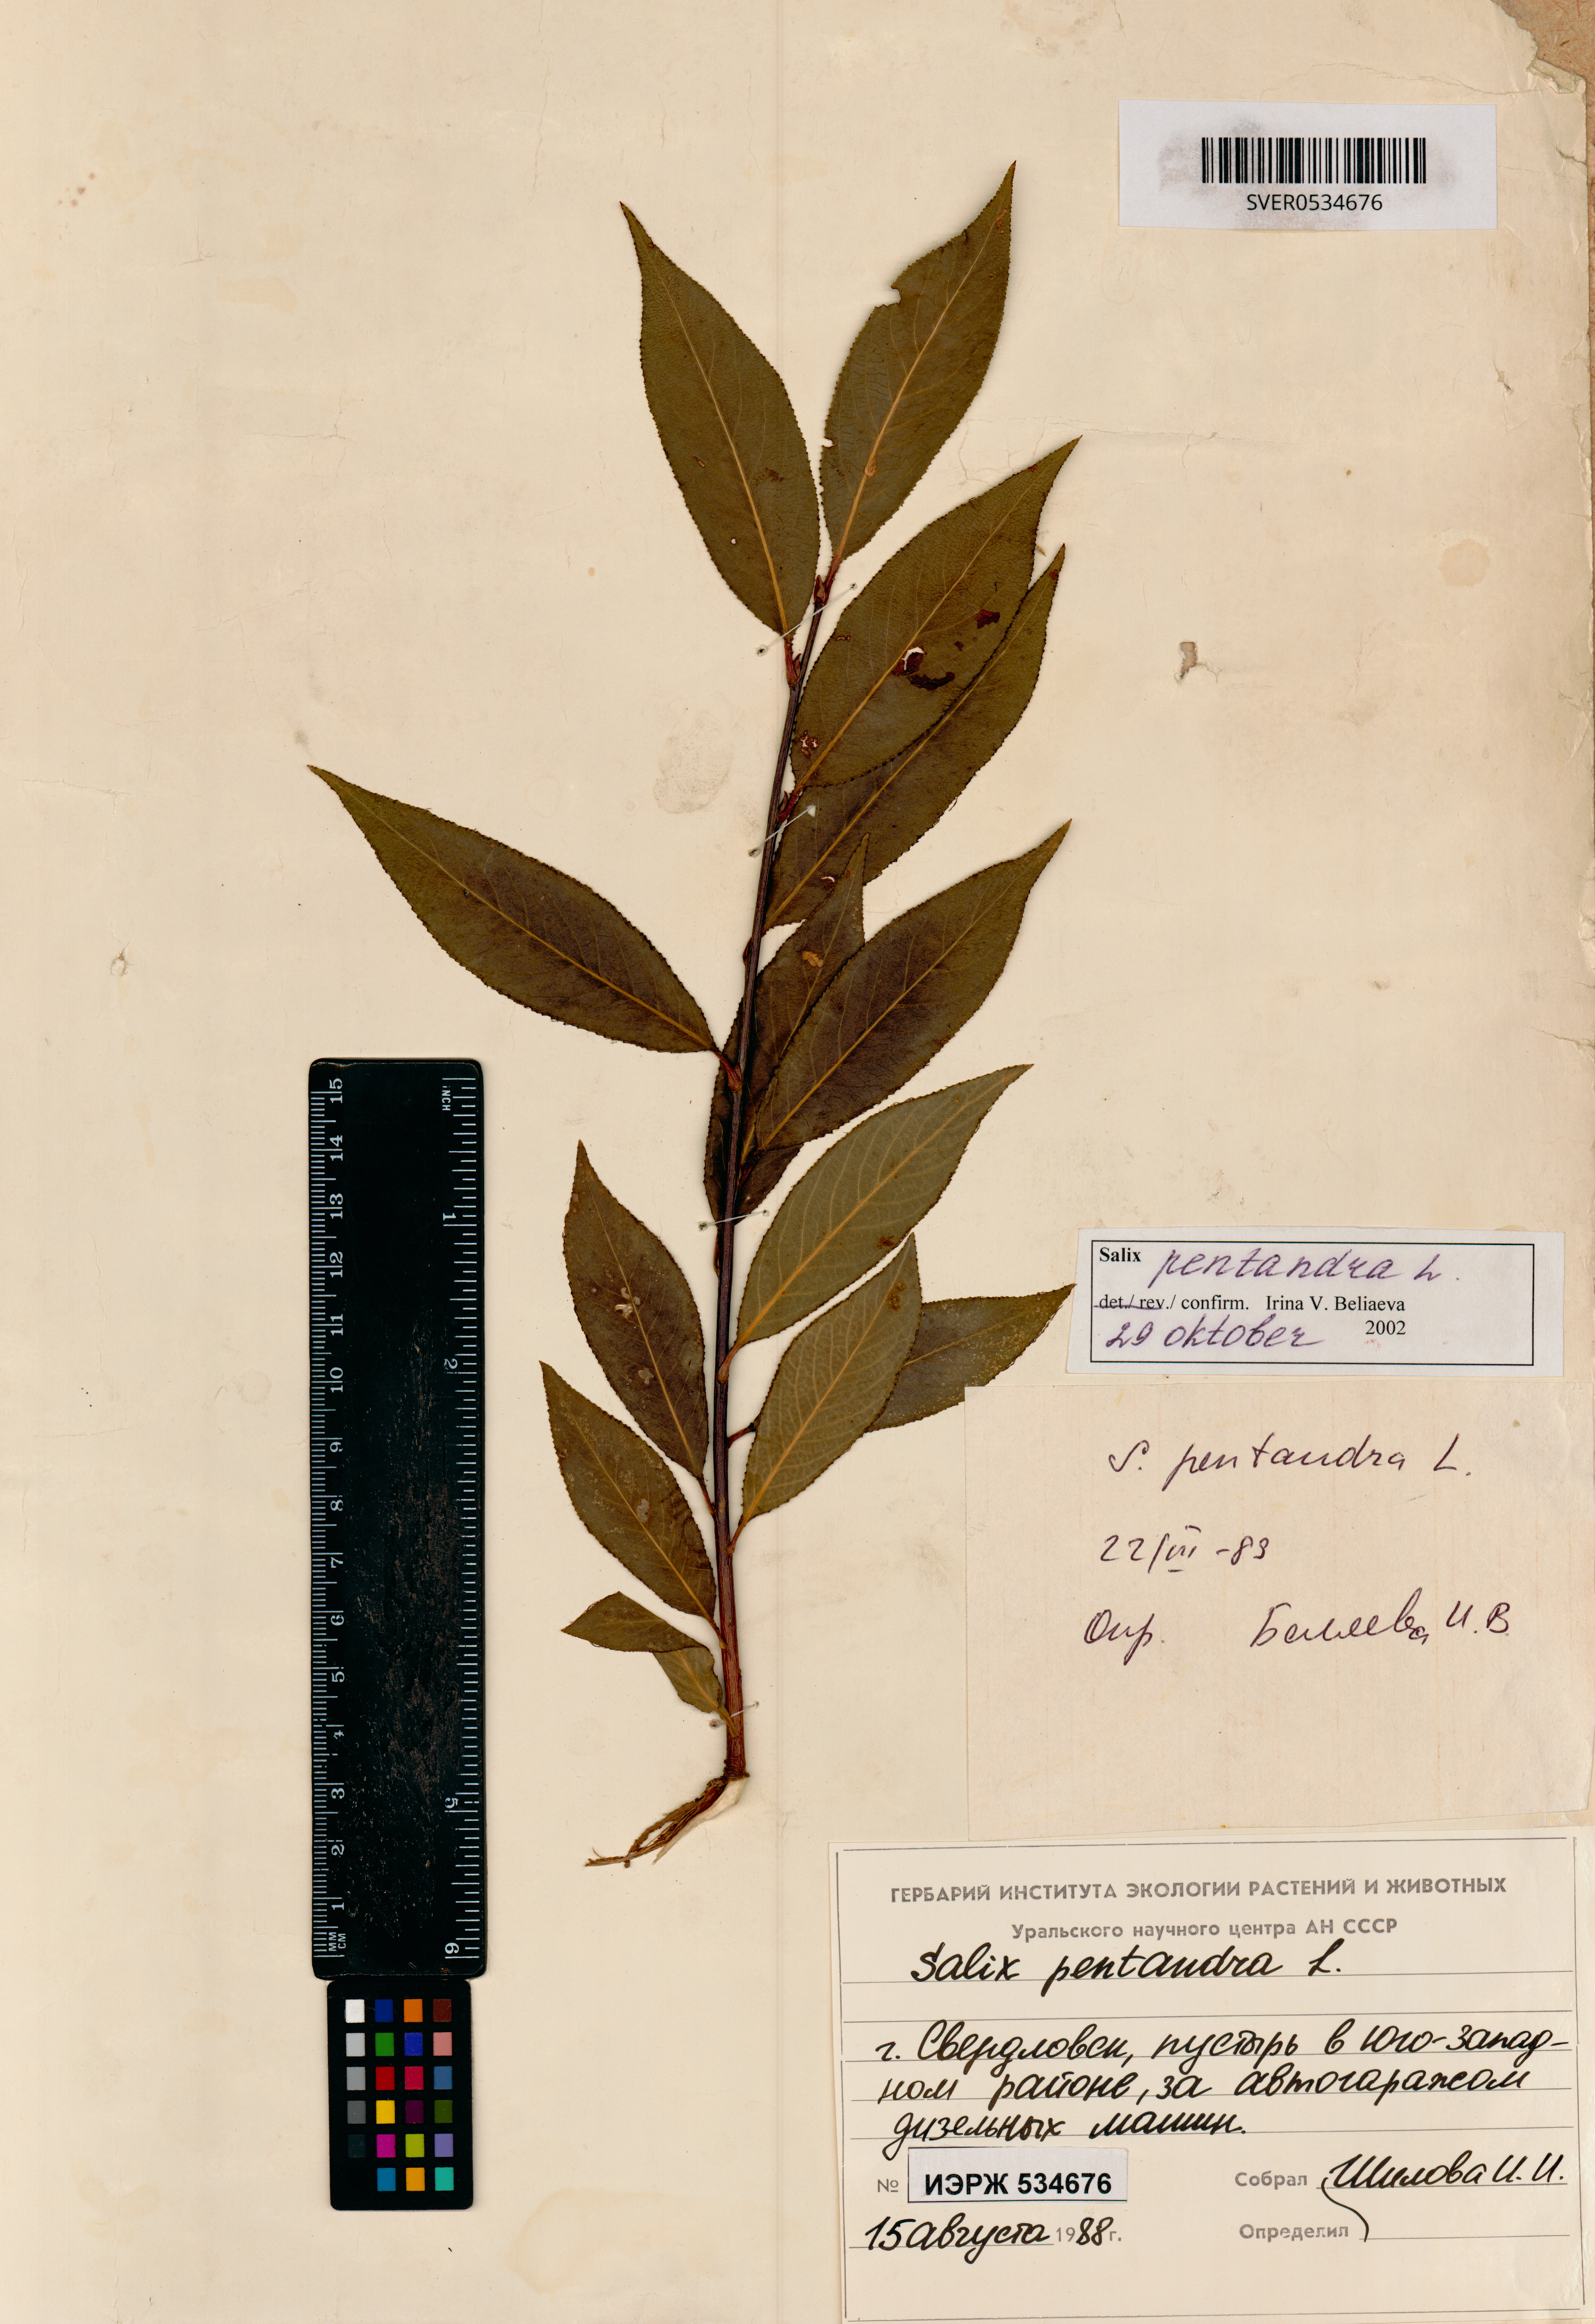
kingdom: Plantae
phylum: Tracheophyta
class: Magnoliopsida
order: Malpighiales
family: Salicaceae
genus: Salix
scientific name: Salix pentandra
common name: Bay willow
